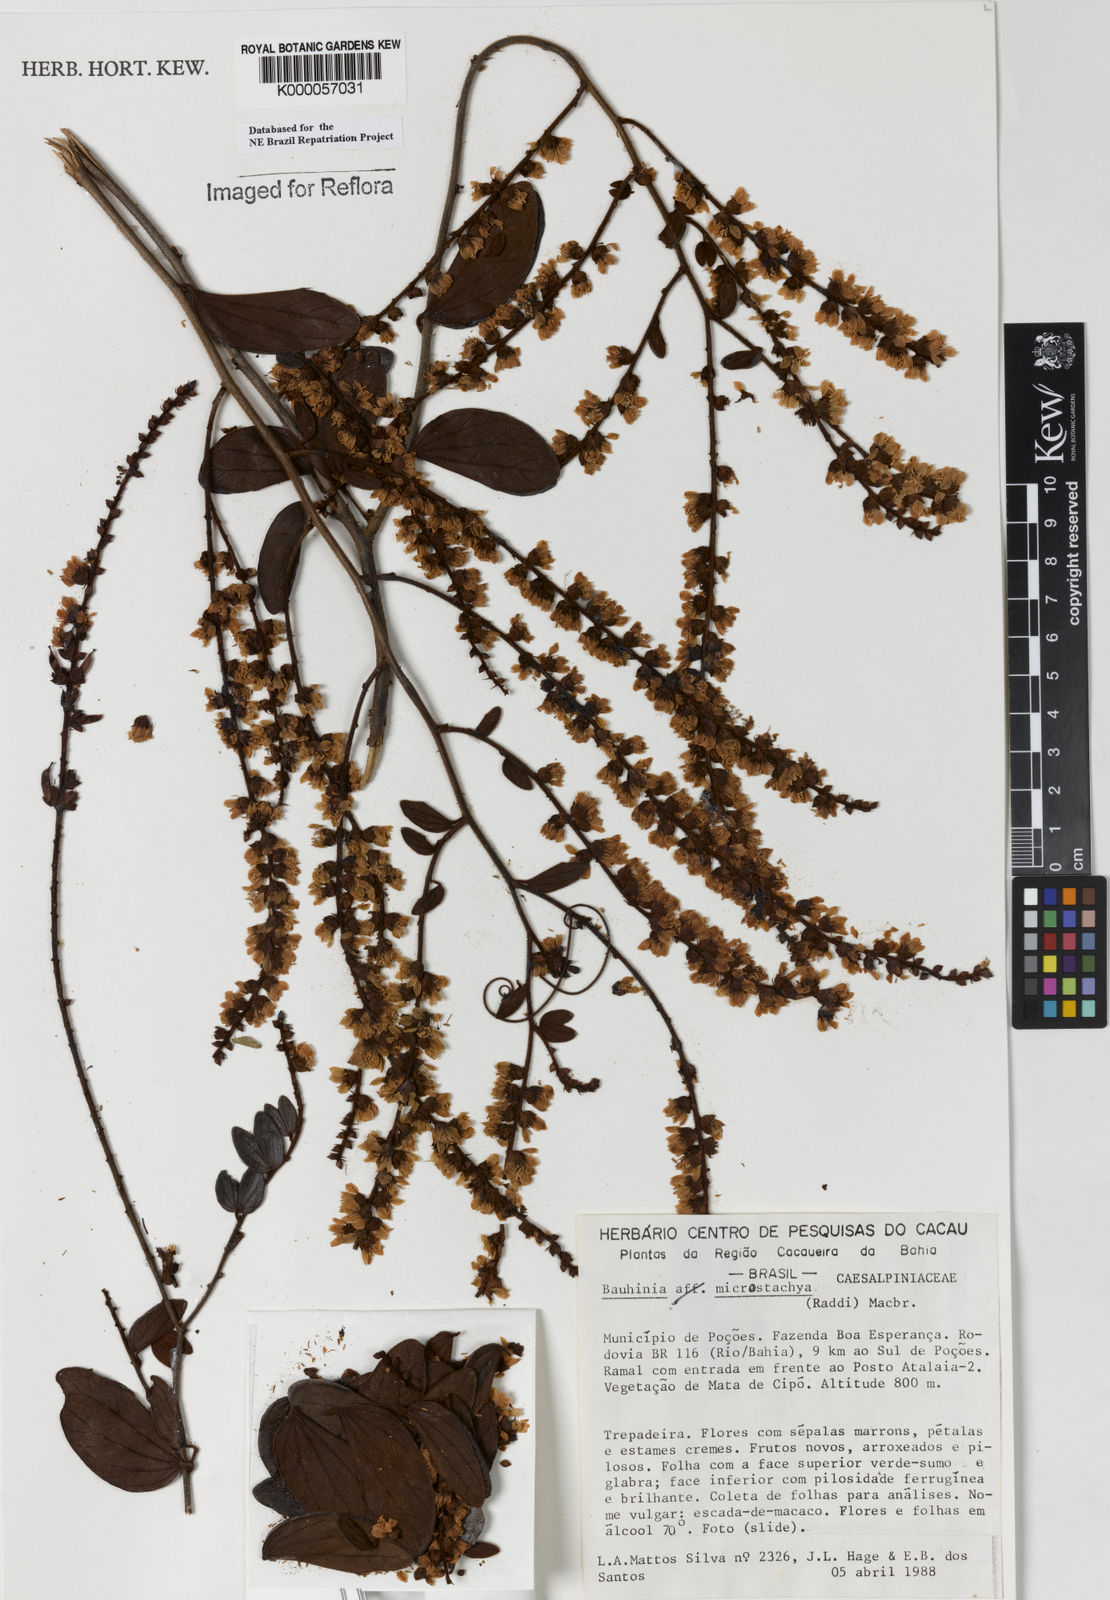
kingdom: Plantae
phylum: Tracheophyta
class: Magnoliopsida
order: Fabales
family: Fabaceae
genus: Schnella
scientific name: Schnella microstachya
